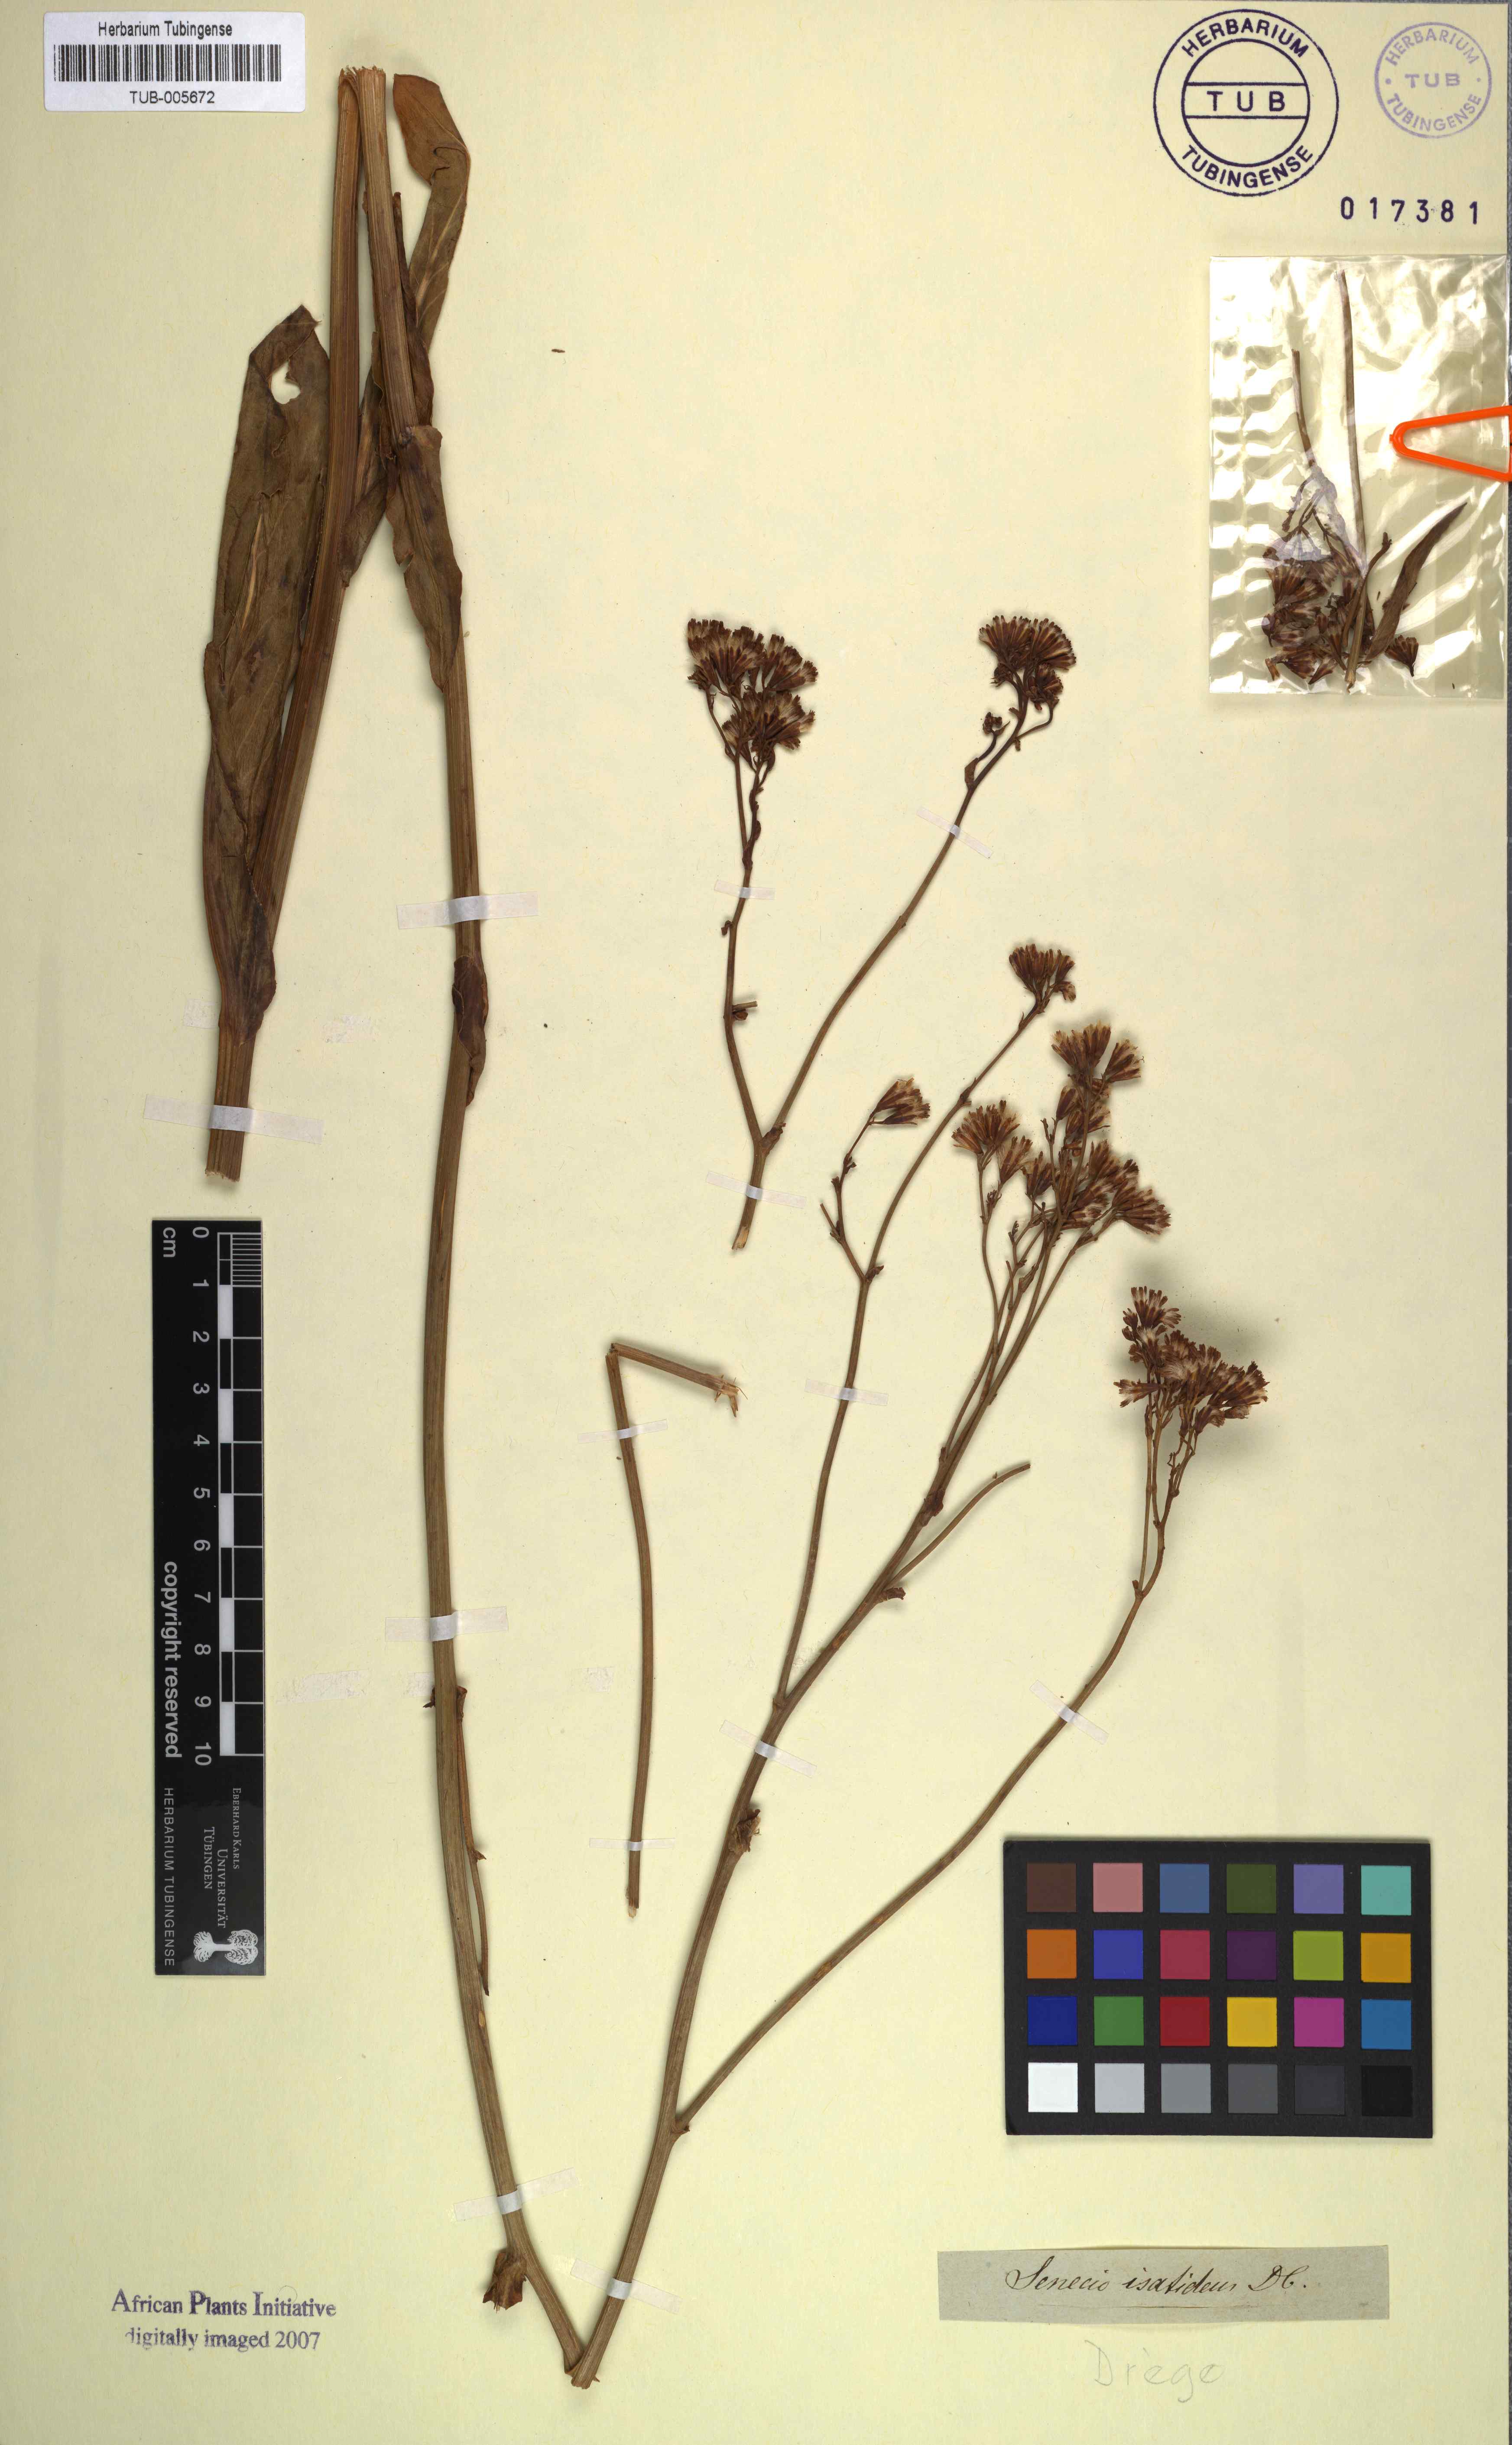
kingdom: Plantae
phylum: Tracheophyta
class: Magnoliopsida
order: Asterales
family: Asteraceae
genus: Senecio
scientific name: Senecio isatideus
